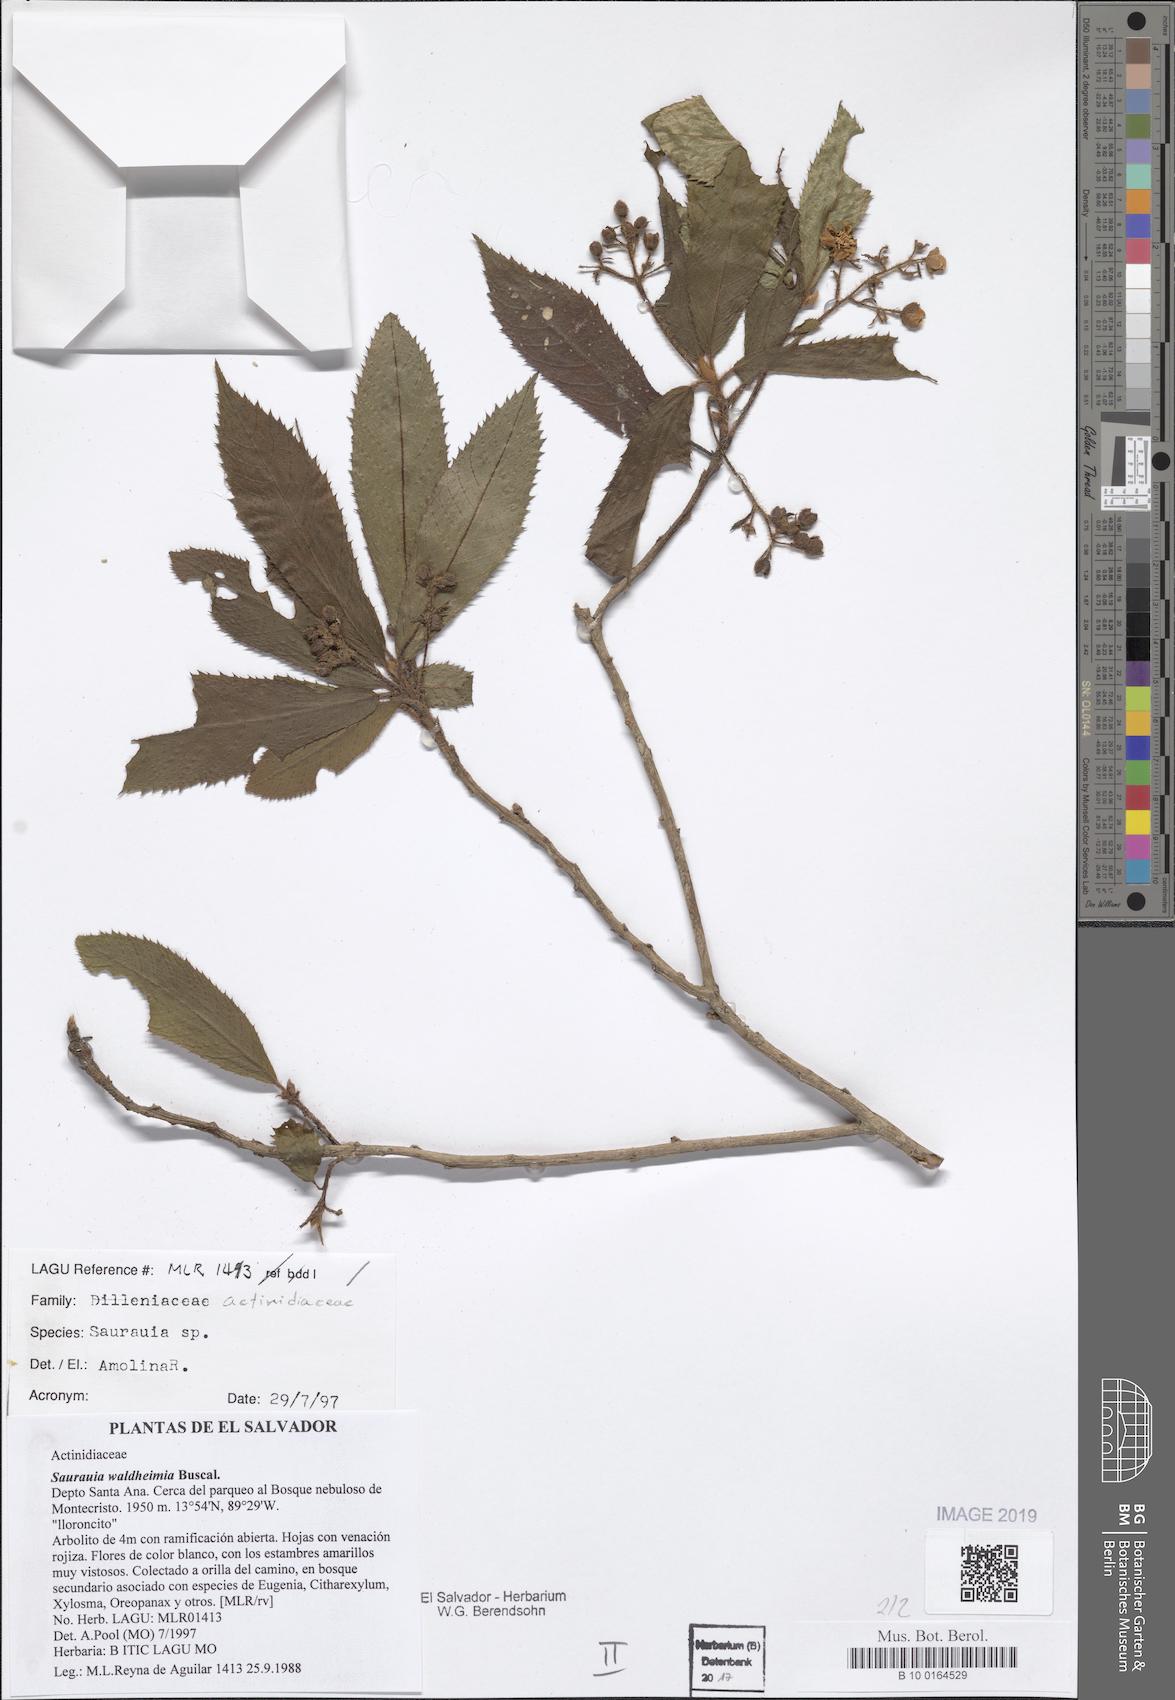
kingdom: Plantae
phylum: Tracheophyta
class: Magnoliopsida
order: Ericales
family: Actinidiaceae
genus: Saurauia
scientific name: Saurauia waldheimii
